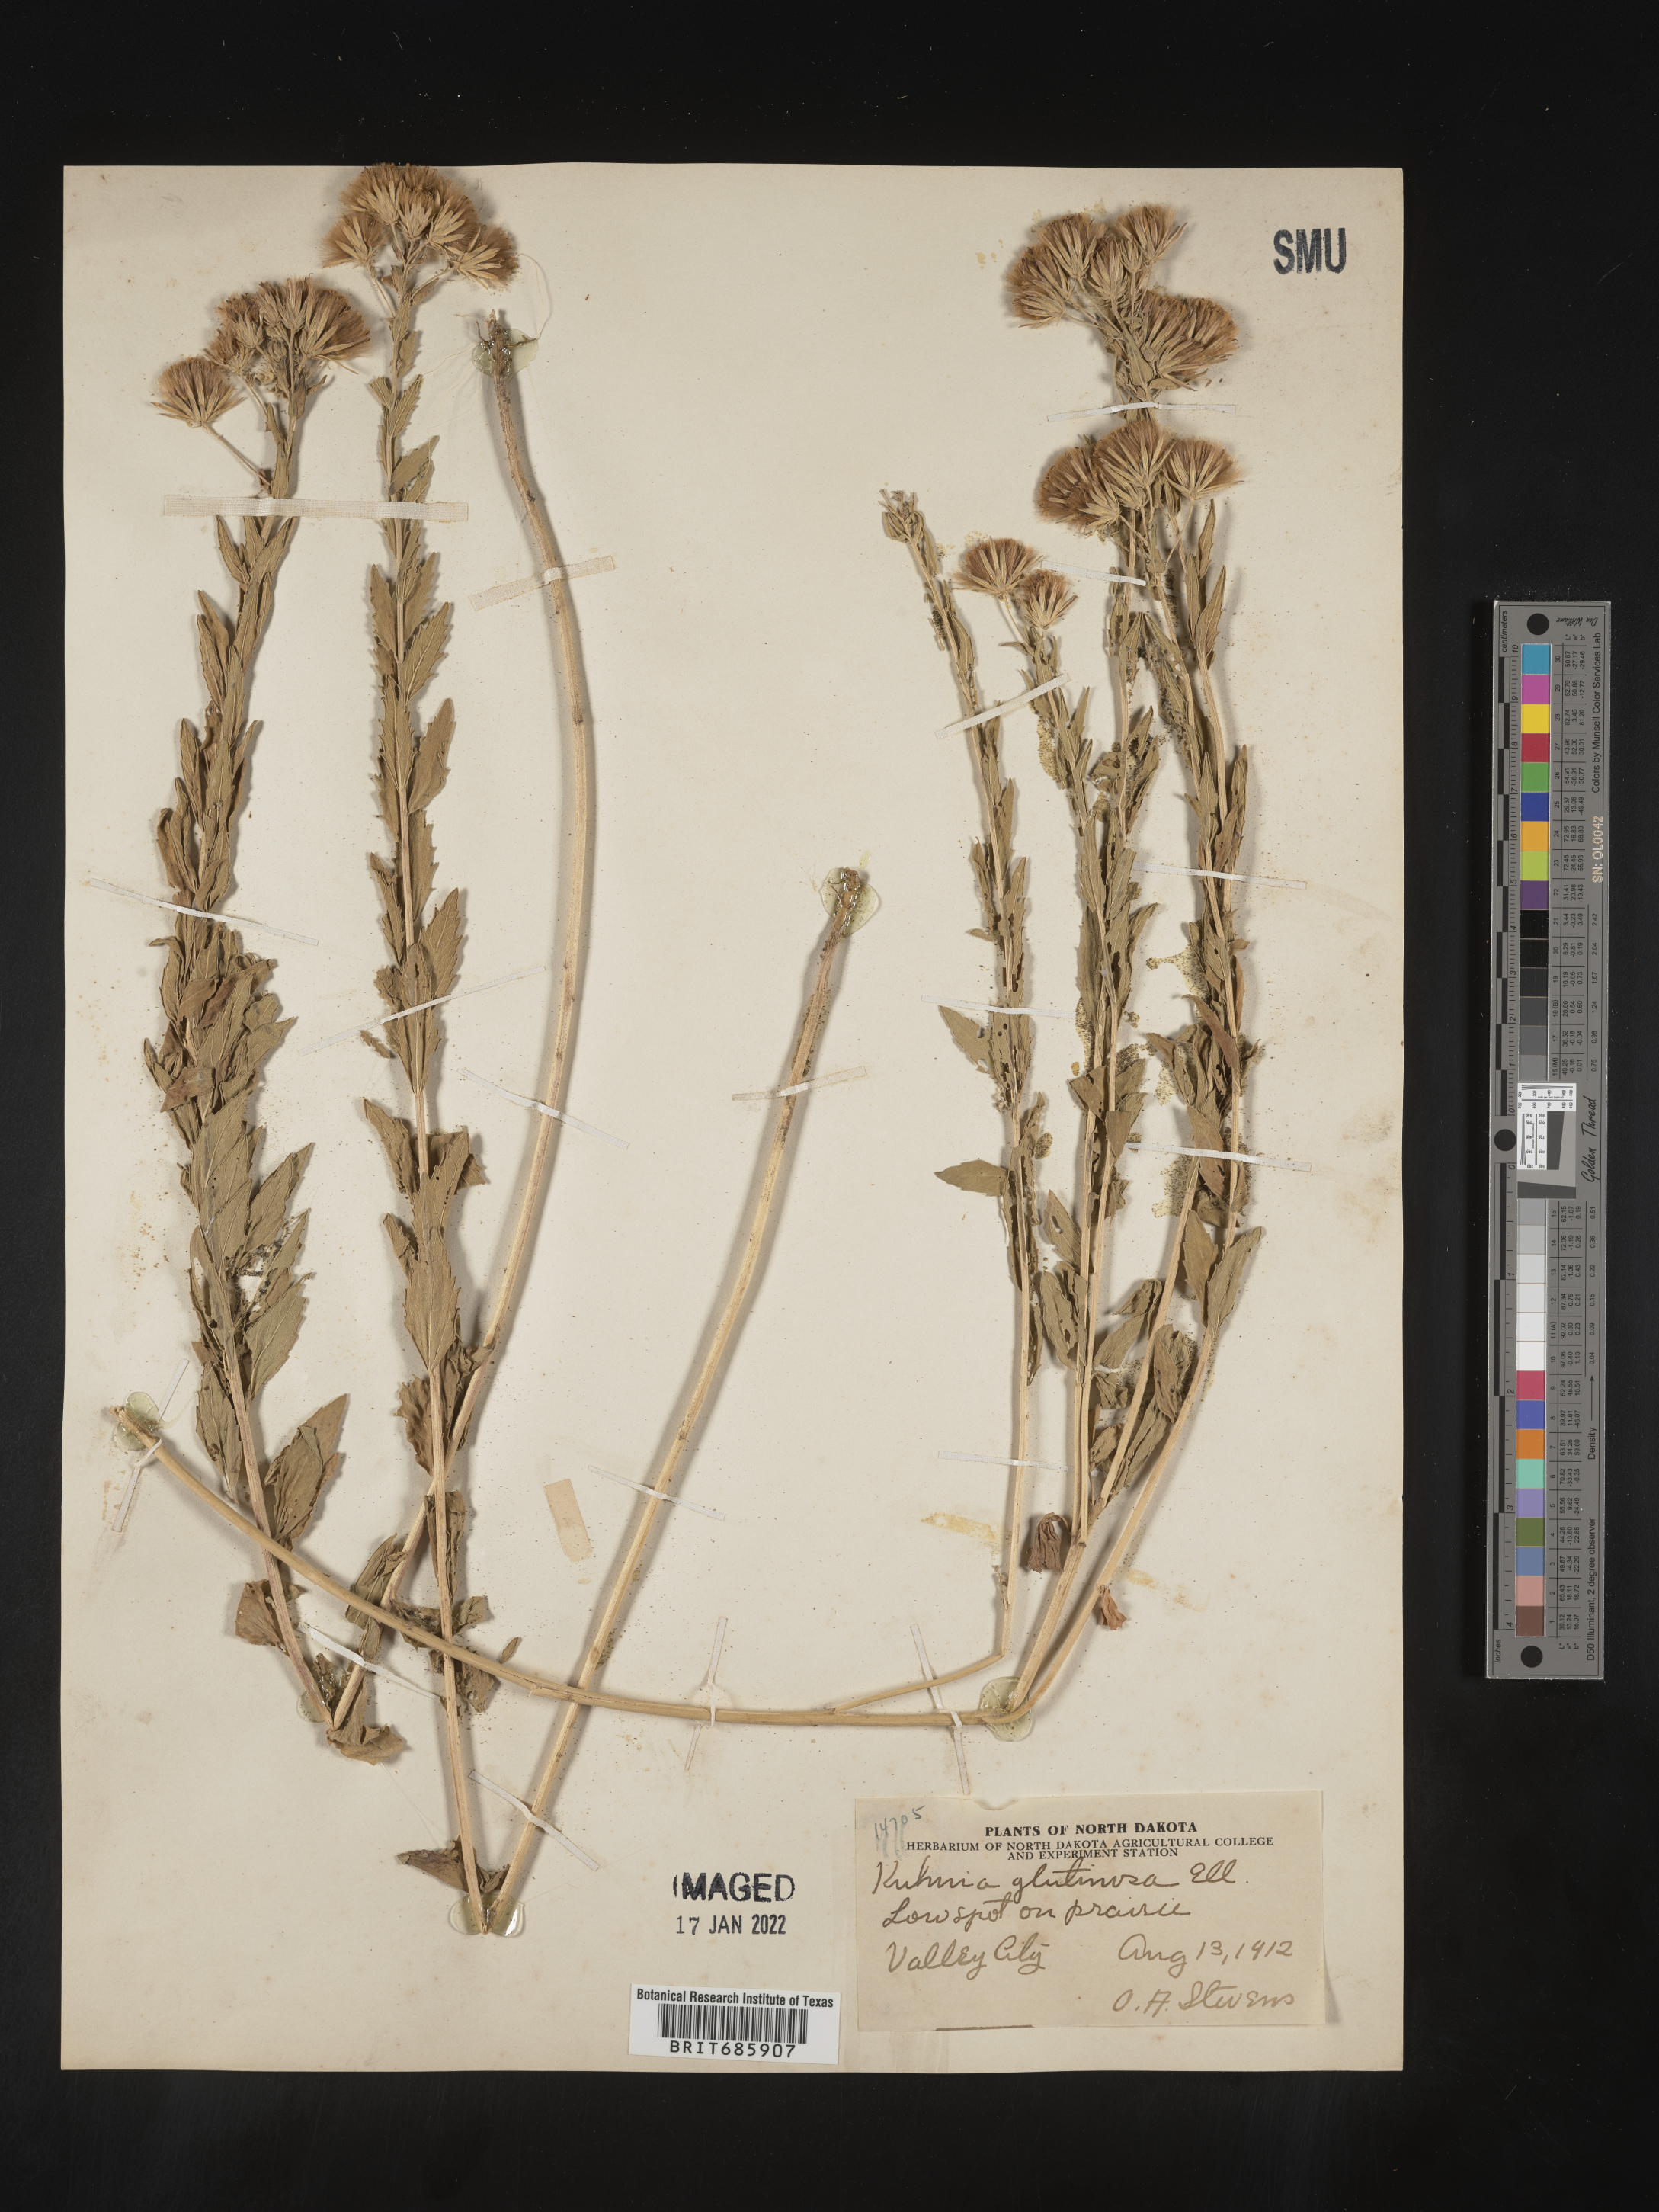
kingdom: Plantae
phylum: Tracheophyta
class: Magnoliopsida
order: Asterales
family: Asteraceae
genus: Brickellia
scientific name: Brickellia eupatorioides
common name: False boneset
